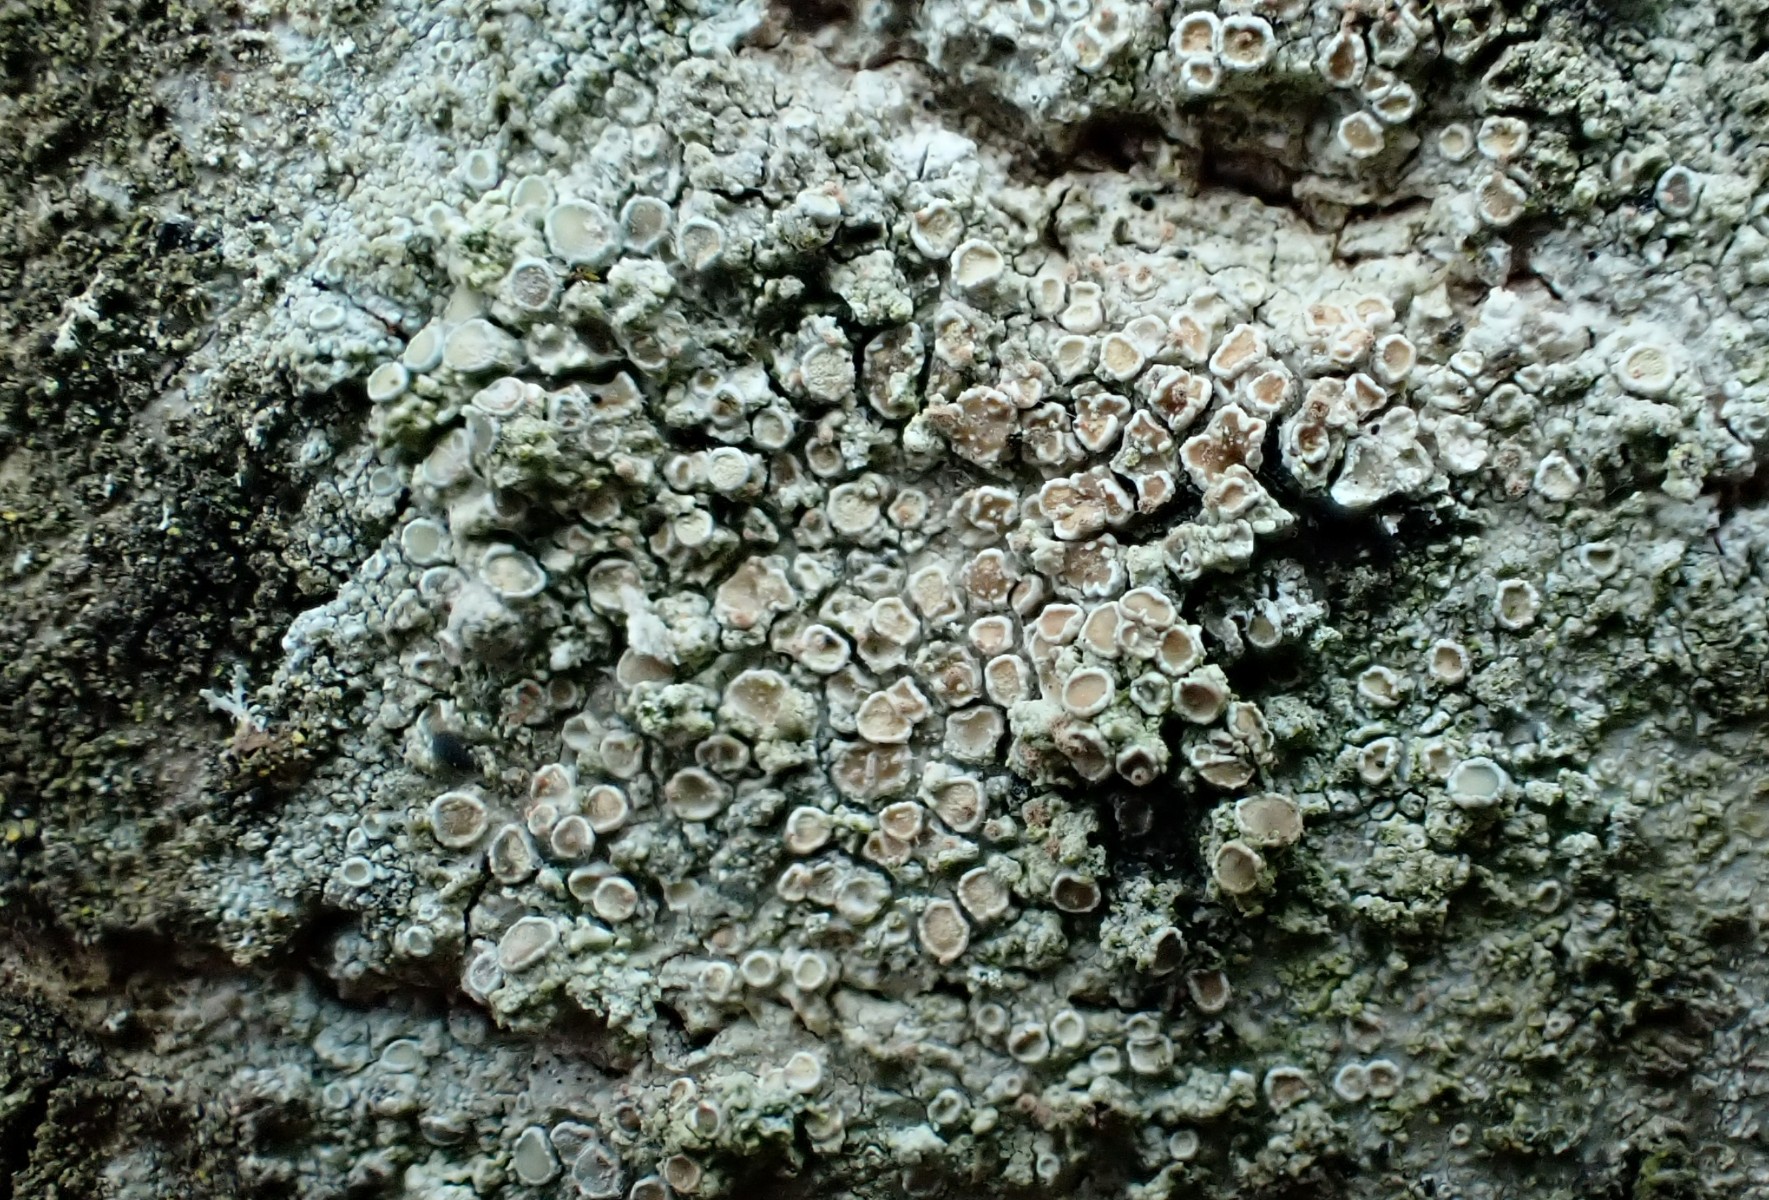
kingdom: Fungi
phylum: Ascomycota
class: Lecanoromycetes
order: Lecanorales
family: Lecanoraceae
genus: Lecanora
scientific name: Lecanora chlarotera
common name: brun kantskivelav
